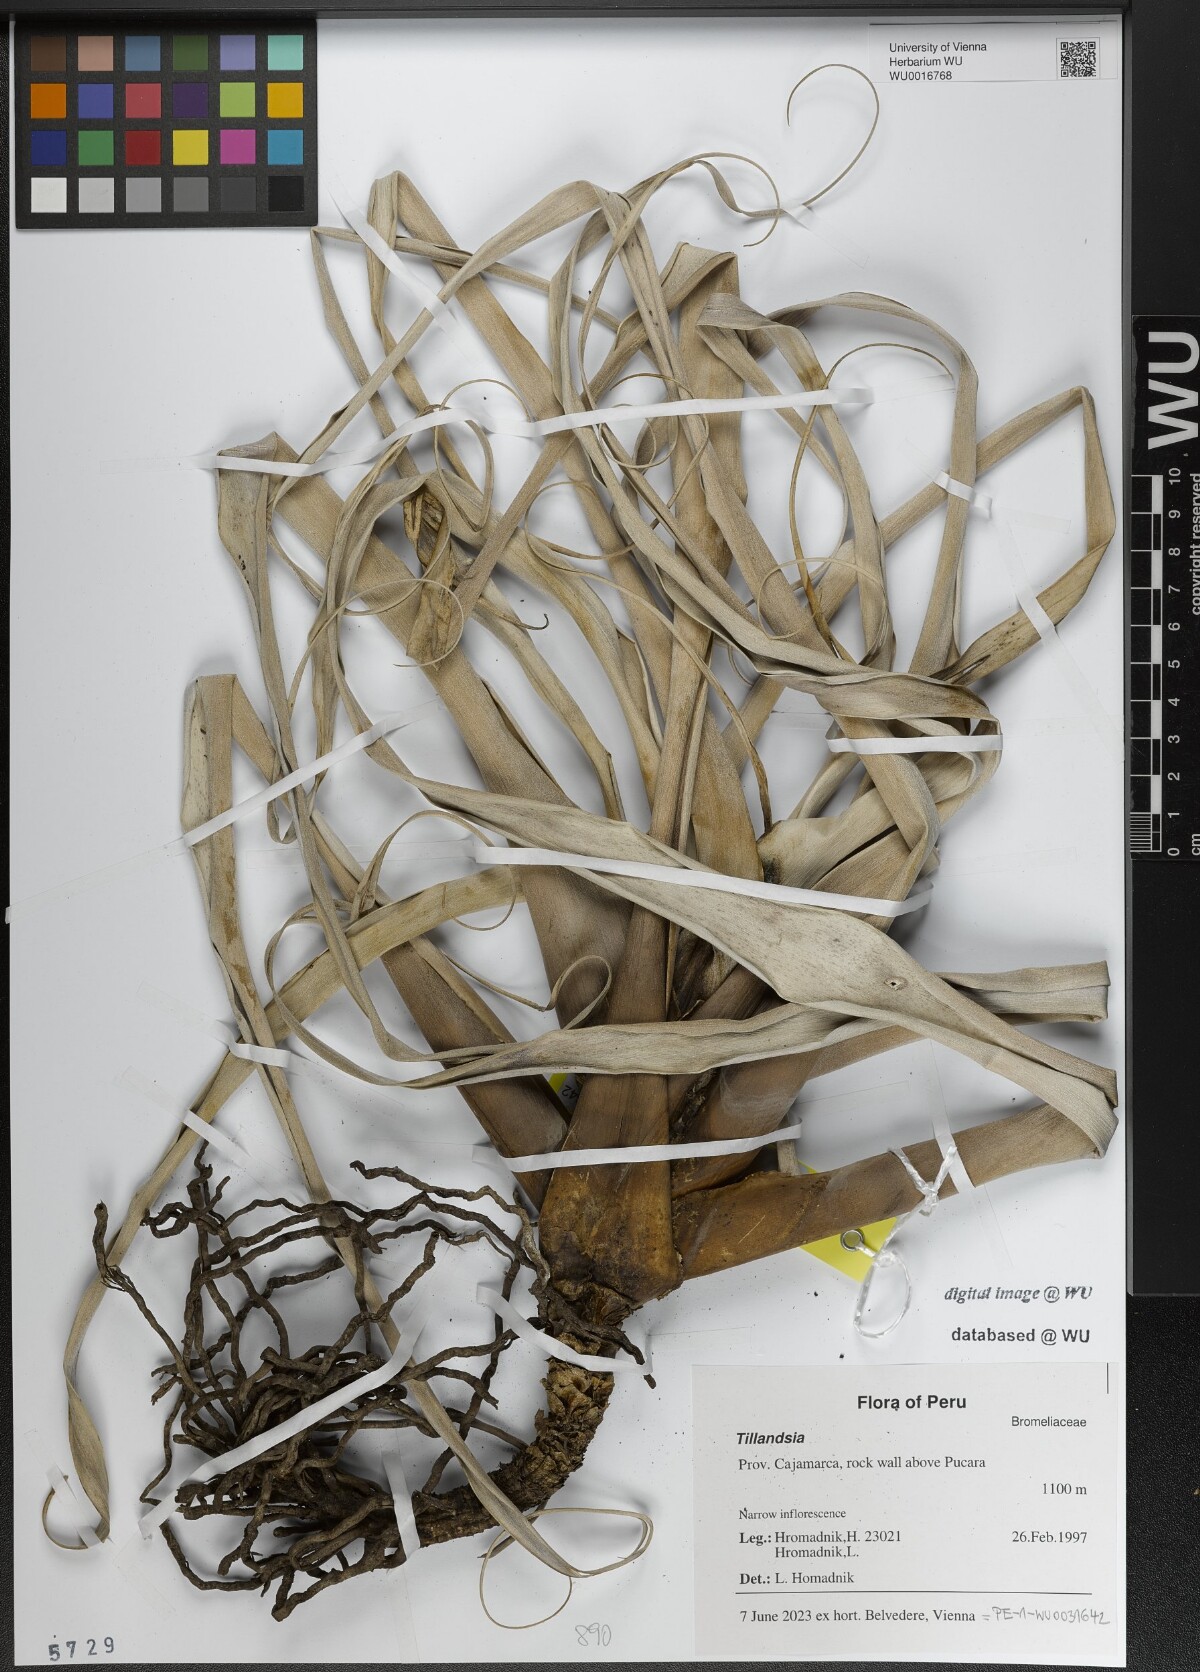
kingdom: Plantae
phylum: Tracheophyta
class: Liliopsida
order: Poales
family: Bromeliaceae
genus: Tillandsia
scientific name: Tillandsia
